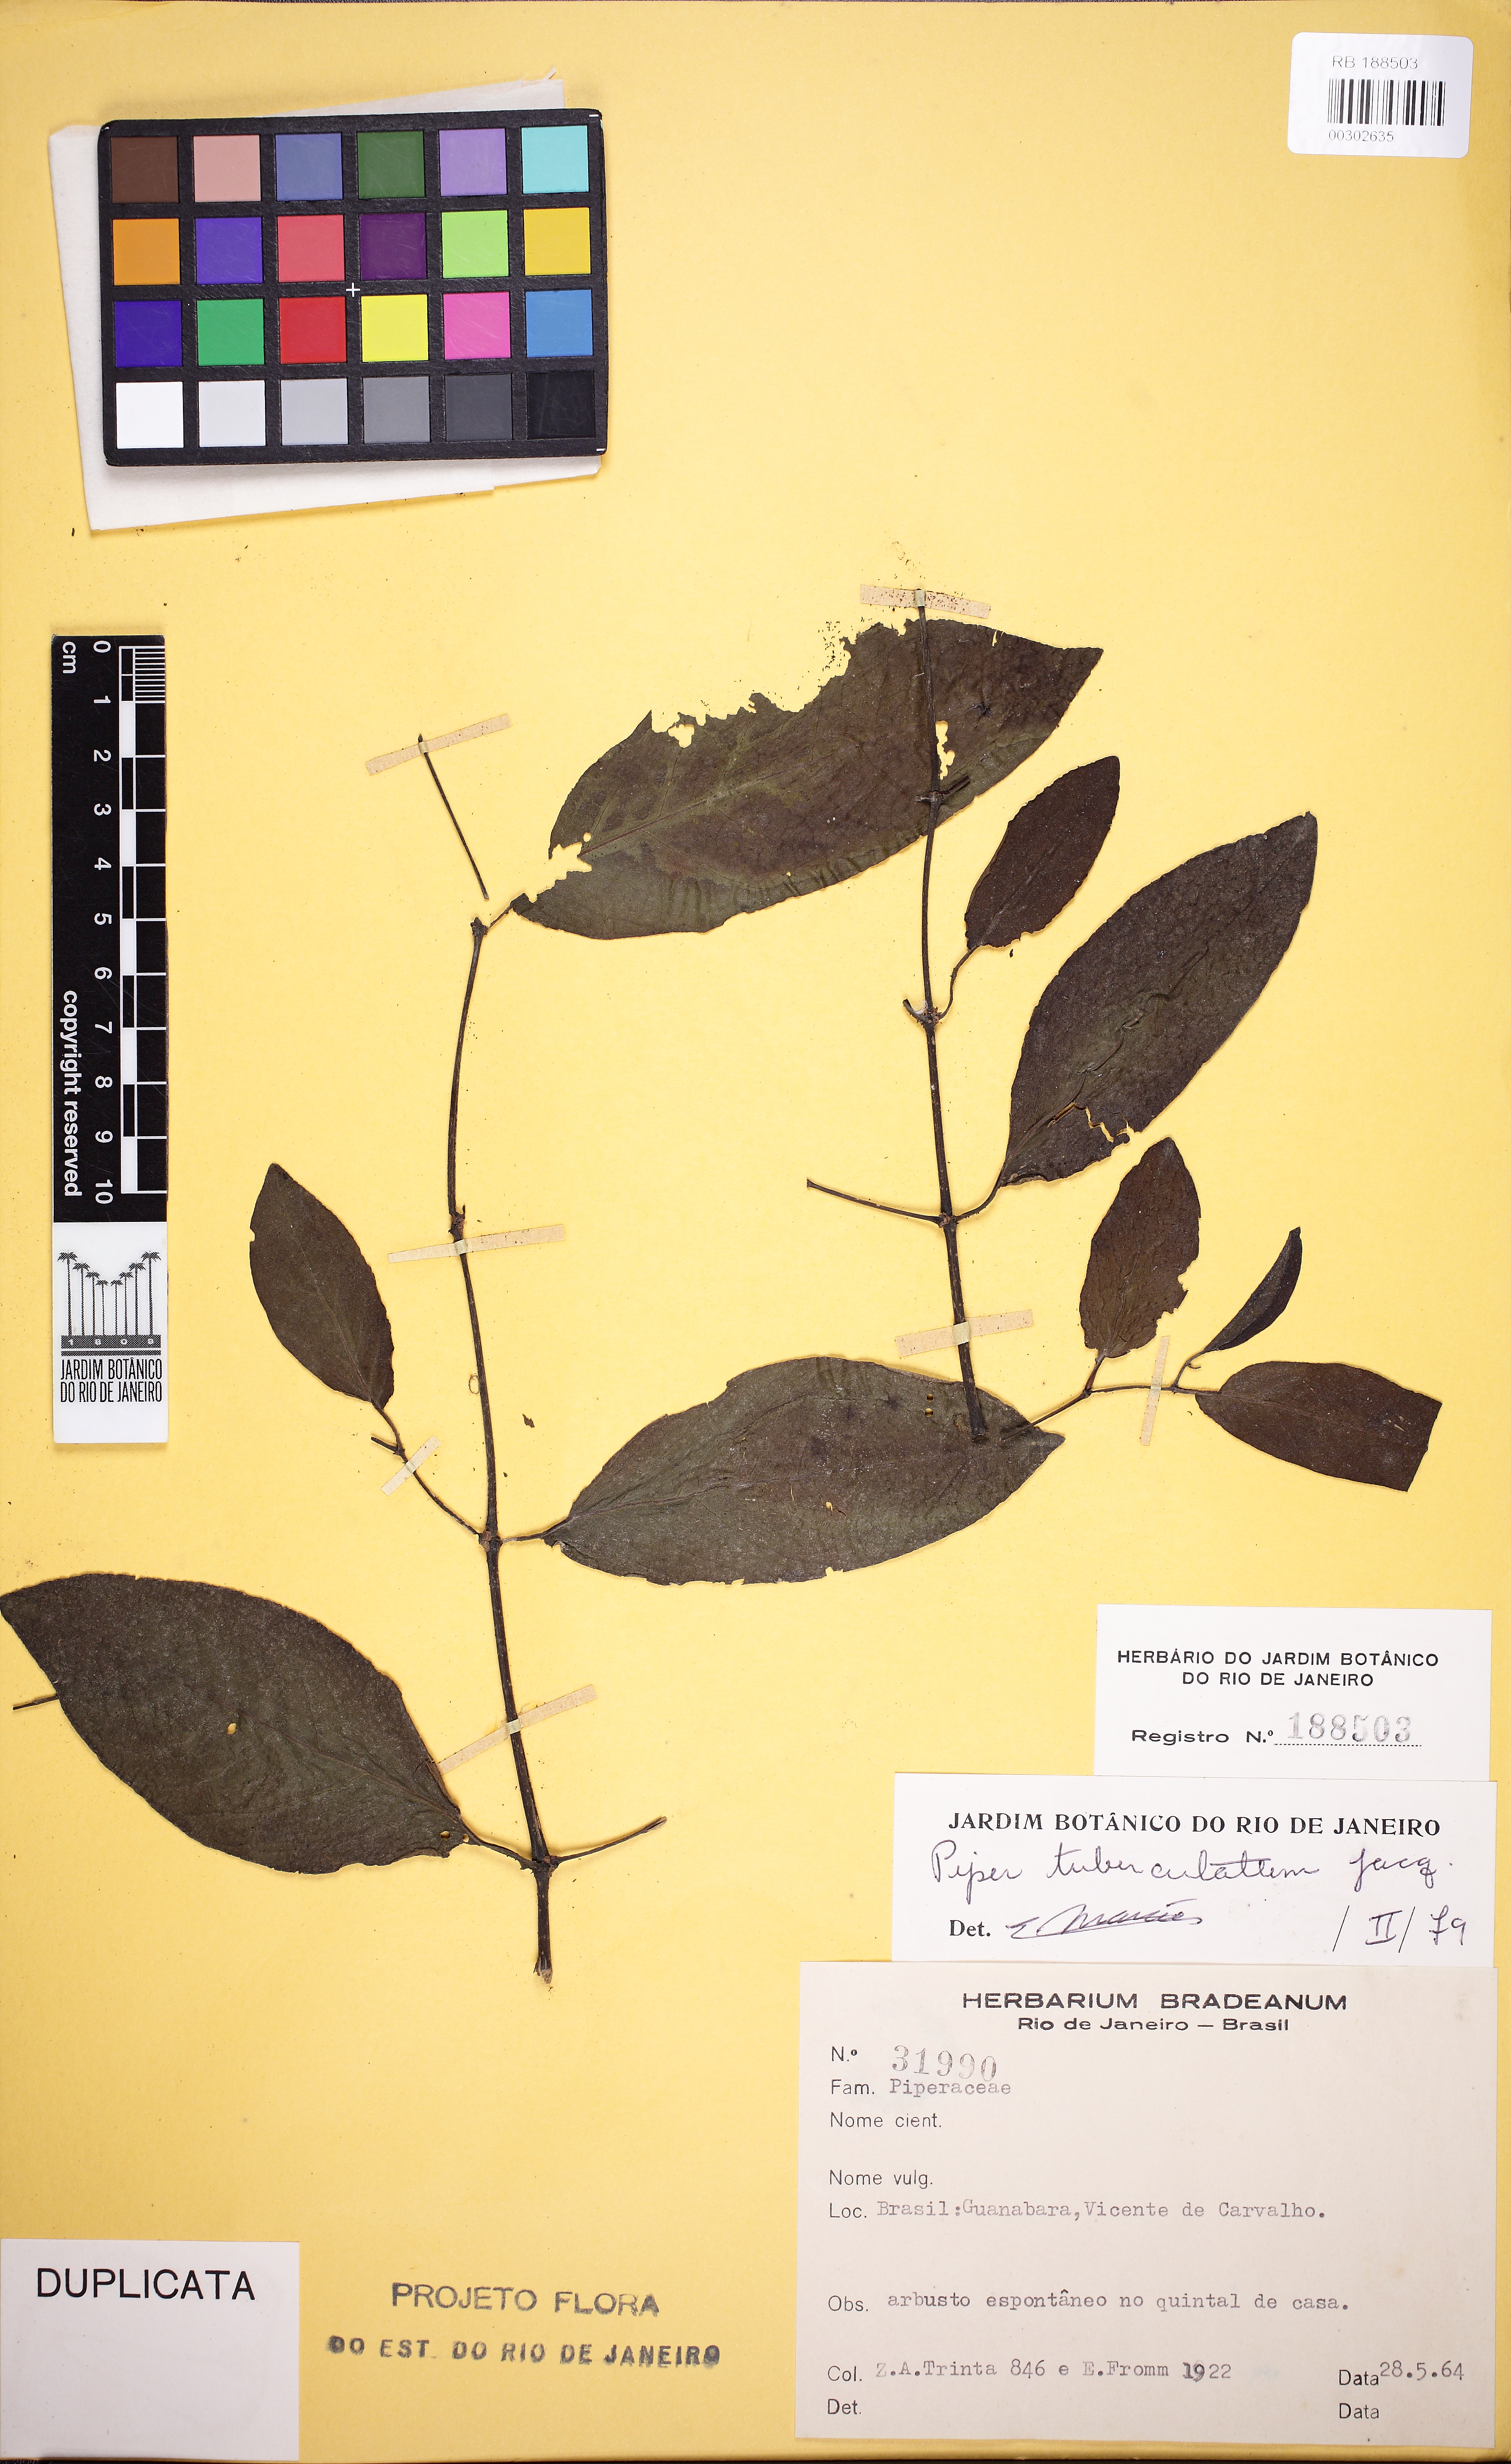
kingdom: Plantae
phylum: Tracheophyta
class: Magnoliopsida
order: Piperales
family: Piperaceae
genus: Piper
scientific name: Piper tuberculatum
